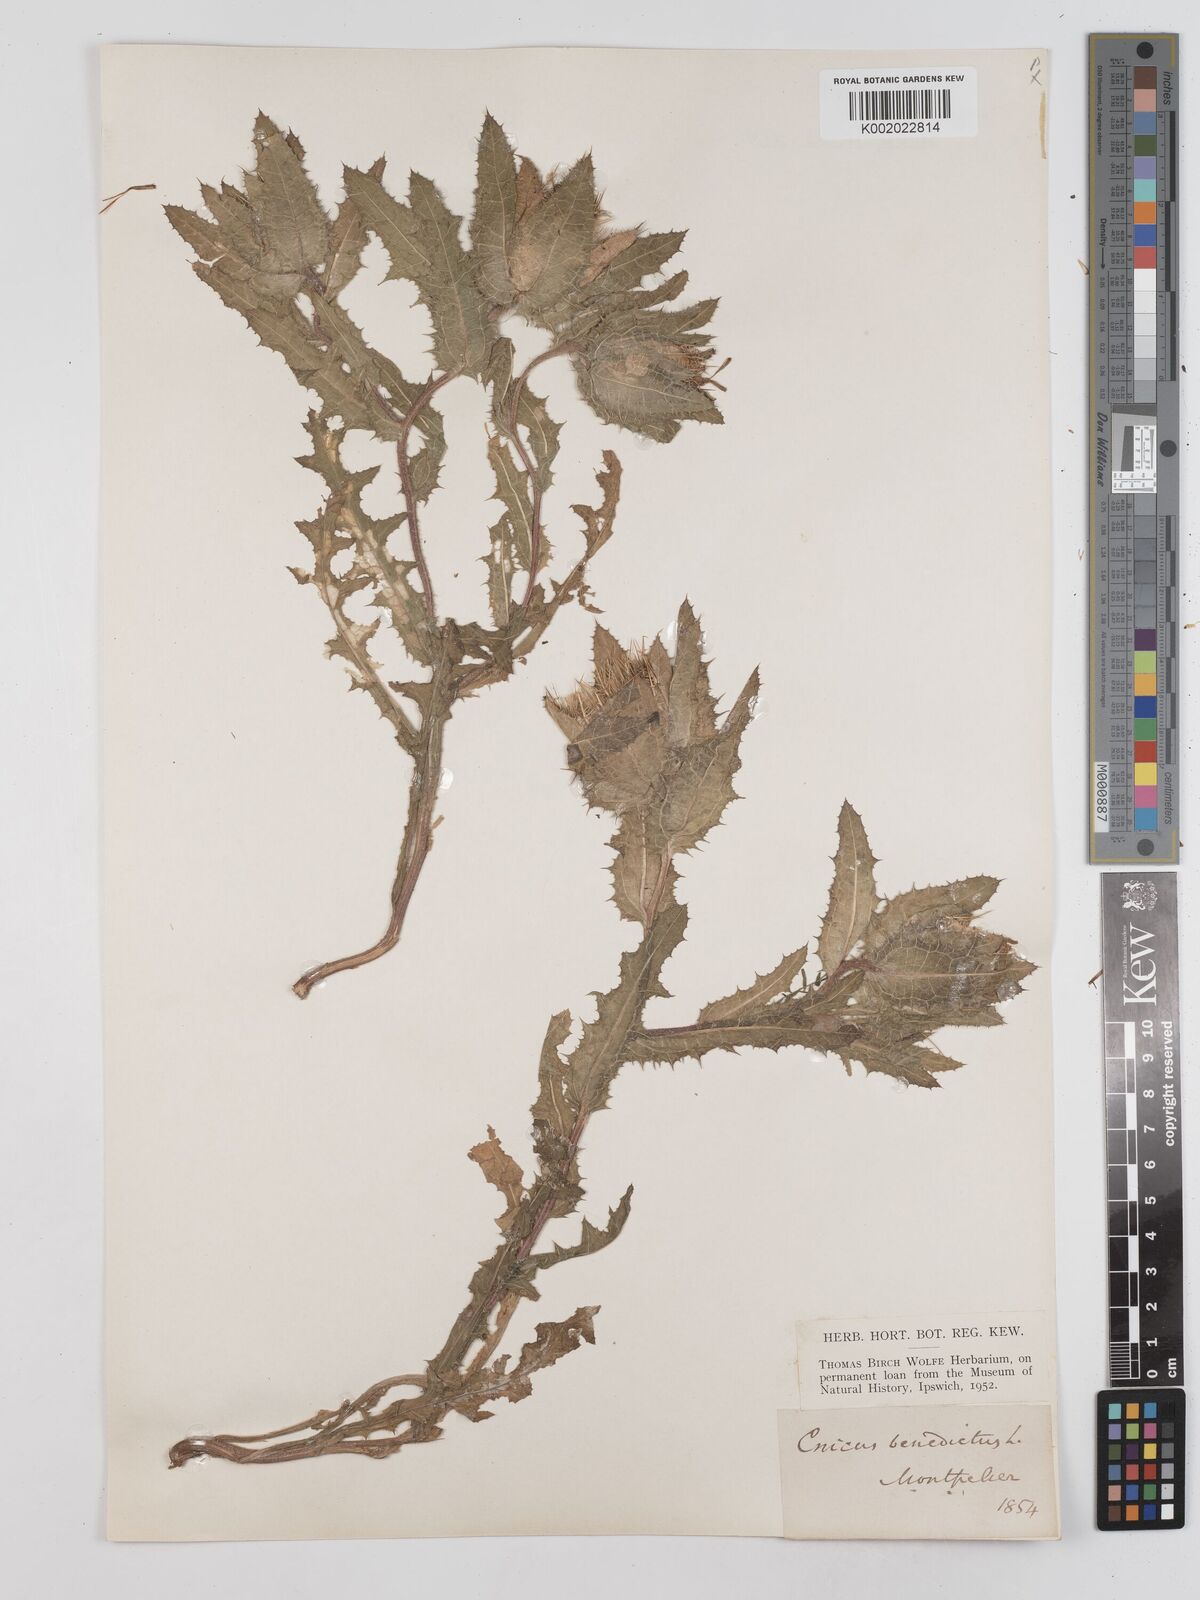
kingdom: Plantae
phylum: Tracheophyta
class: Magnoliopsida
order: Asterales
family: Asteraceae
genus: Centaurea
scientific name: Centaurea benedicta
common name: Blessed thistle
